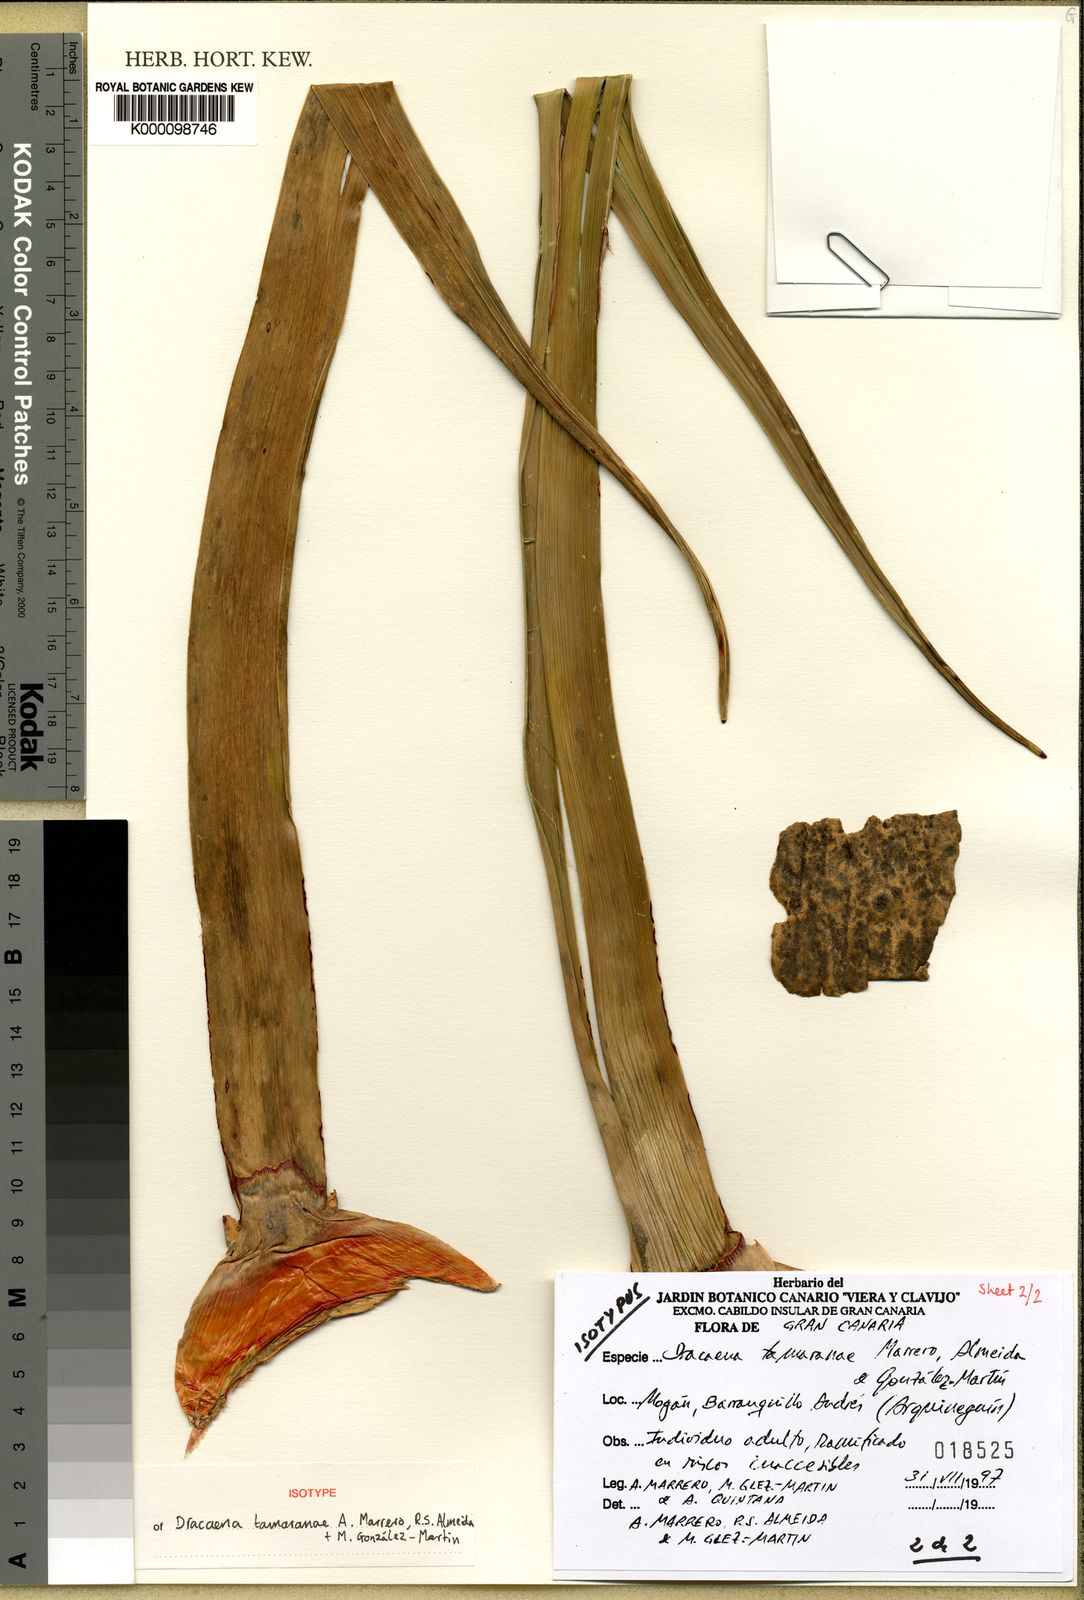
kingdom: Plantae
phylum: Tracheophyta
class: Liliopsida
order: Asparagales
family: Asparagaceae
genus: Dracaena
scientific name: Dracaena
